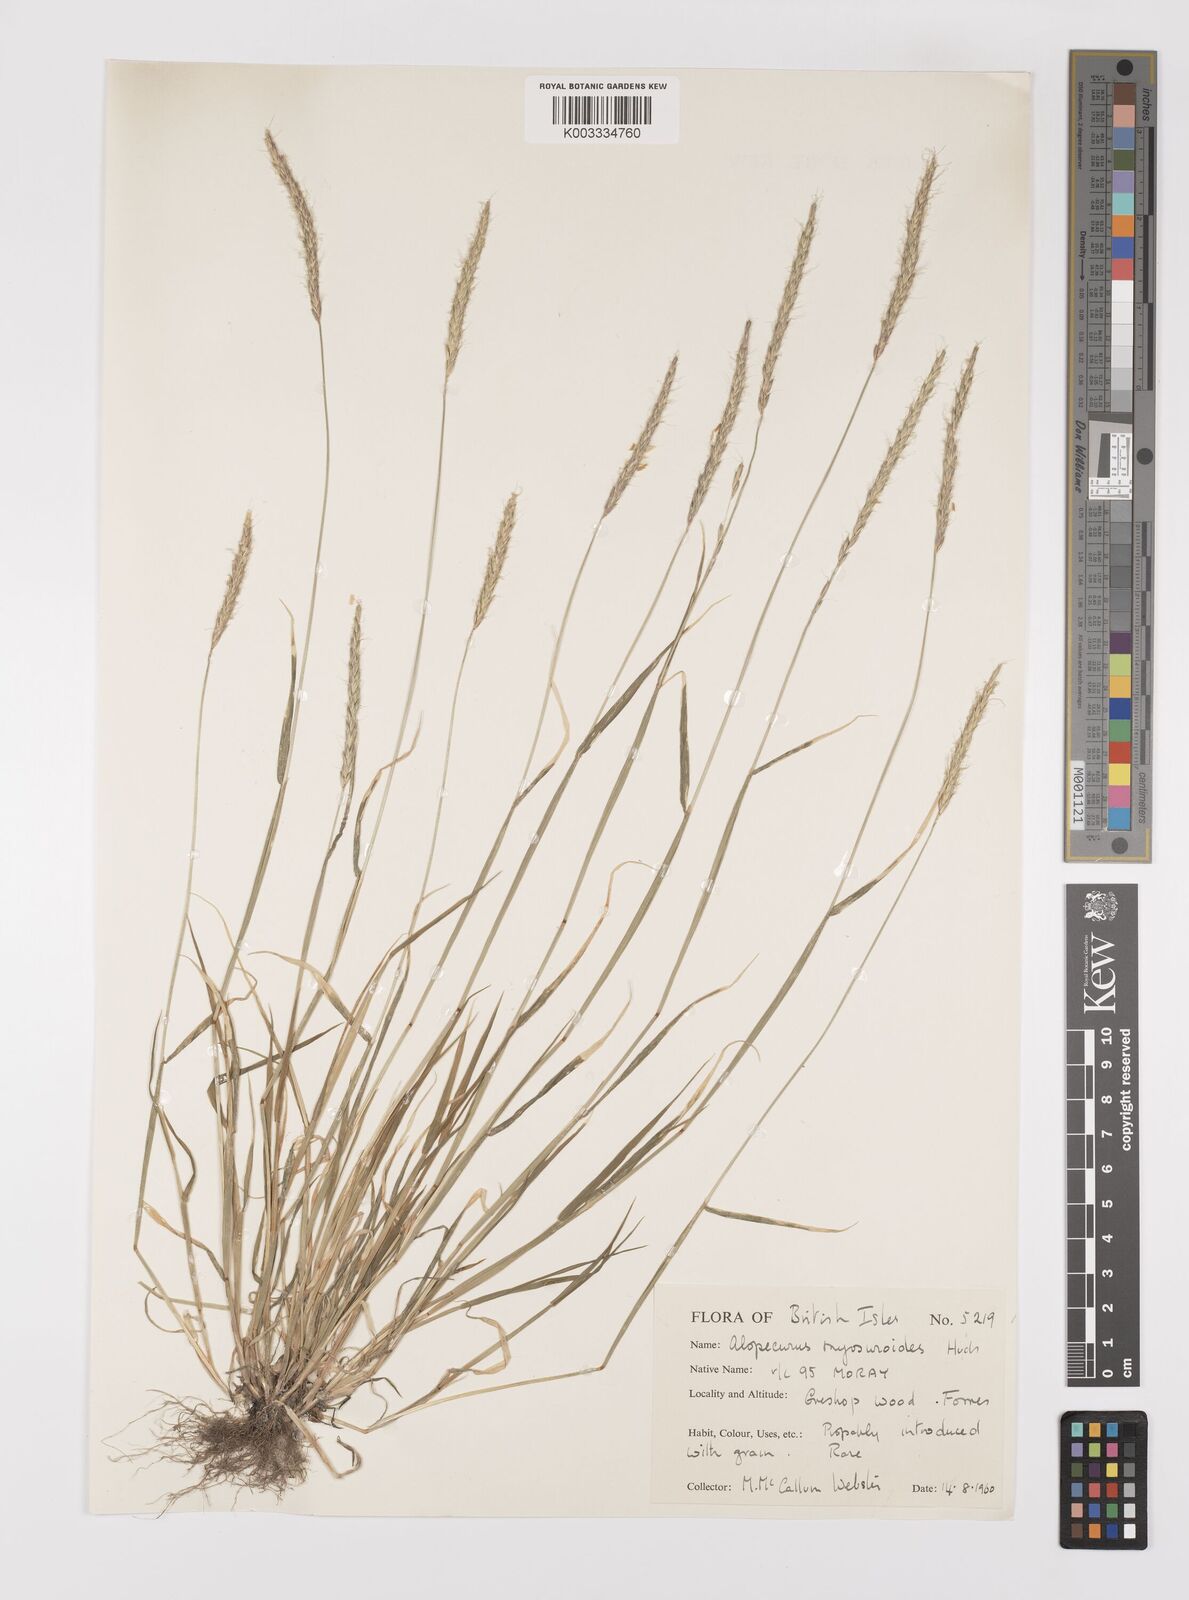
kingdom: Plantae
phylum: Tracheophyta
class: Liliopsida
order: Poales
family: Poaceae
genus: Alopecurus
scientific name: Alopecurus myosuroides
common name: Black-grass
